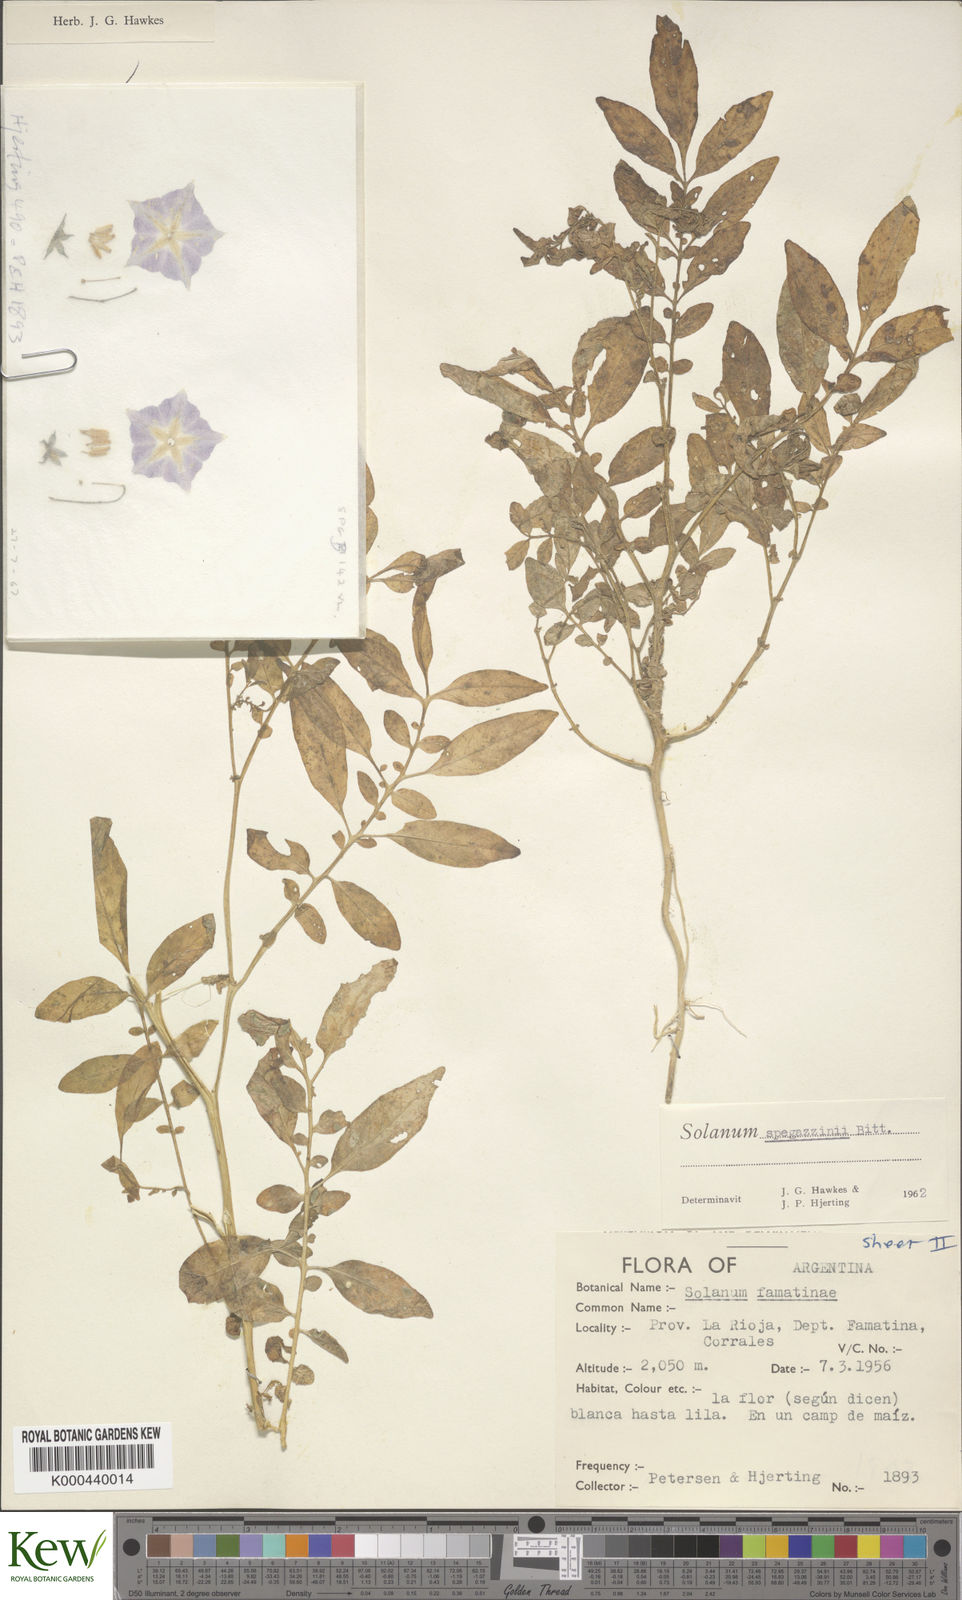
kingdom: Plantae
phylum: Tracheophyta
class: Magnoliopsida
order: Solanales
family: Solanaceae
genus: Solanum
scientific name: Solanum brevicaule
